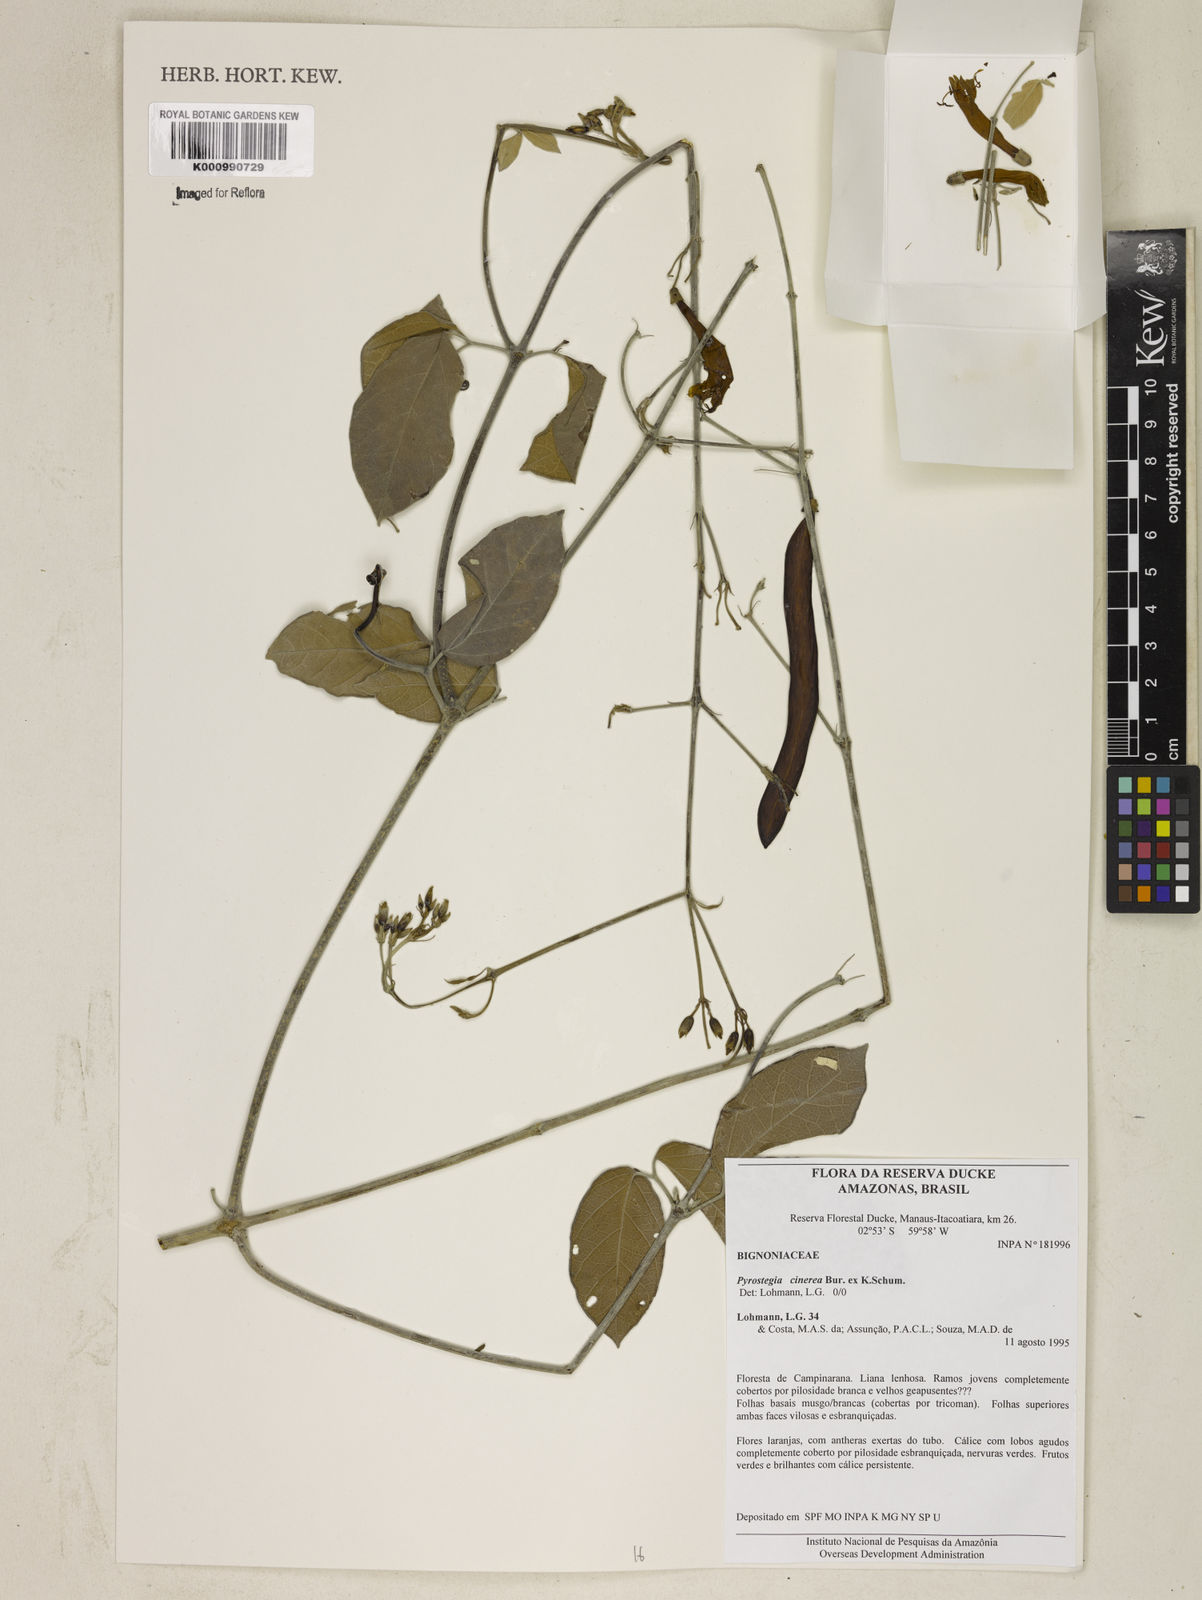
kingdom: Plantae
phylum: Tracheophyta
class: Magnoliopsida
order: Lamiales
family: Bignoniaceae
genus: Pyrostegia
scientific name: Pyrostegia
